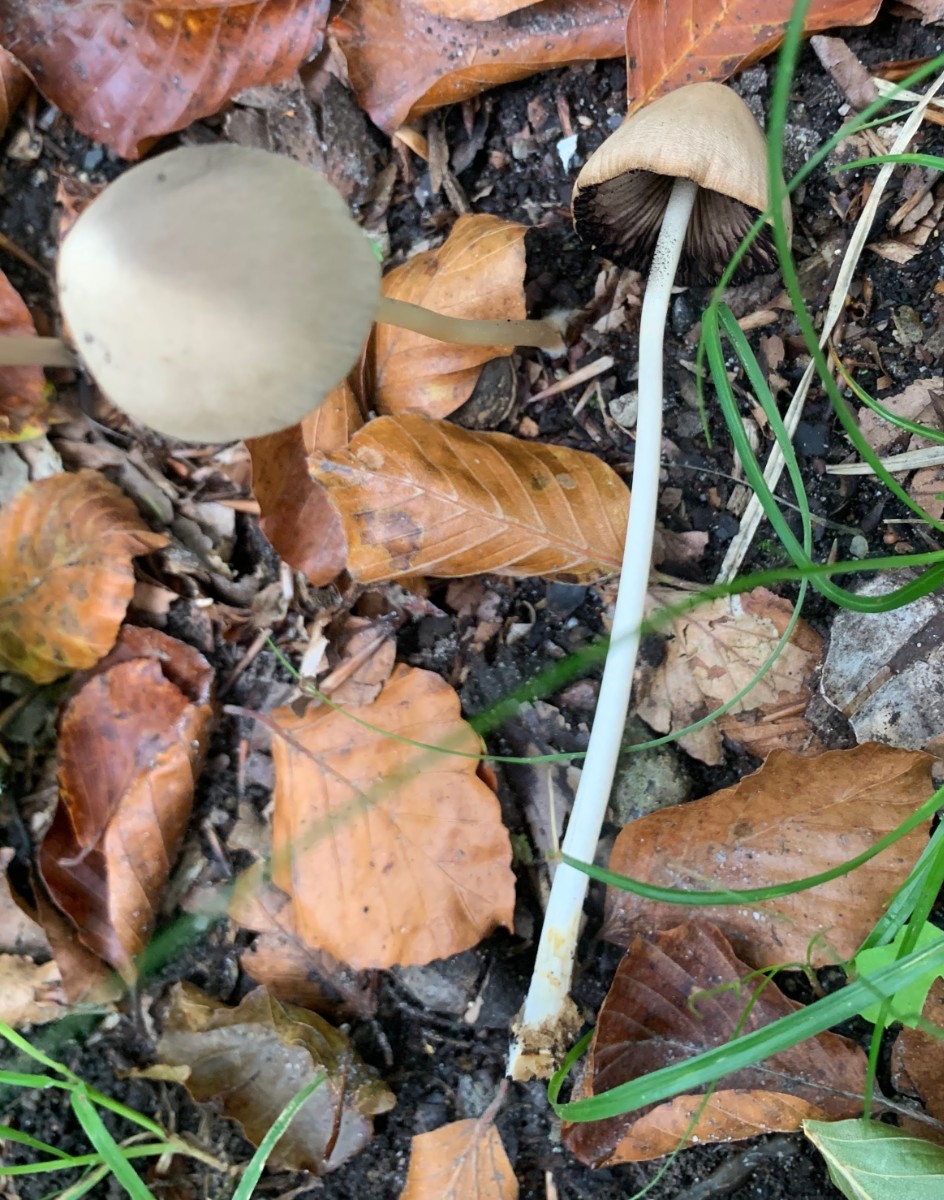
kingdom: Fungi
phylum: Basidiomycota
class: Agaricomycetes
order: Agaricales
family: Psathyrellaceae
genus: Parasola
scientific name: Parasola conopilea
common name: kegle-hjulhat
